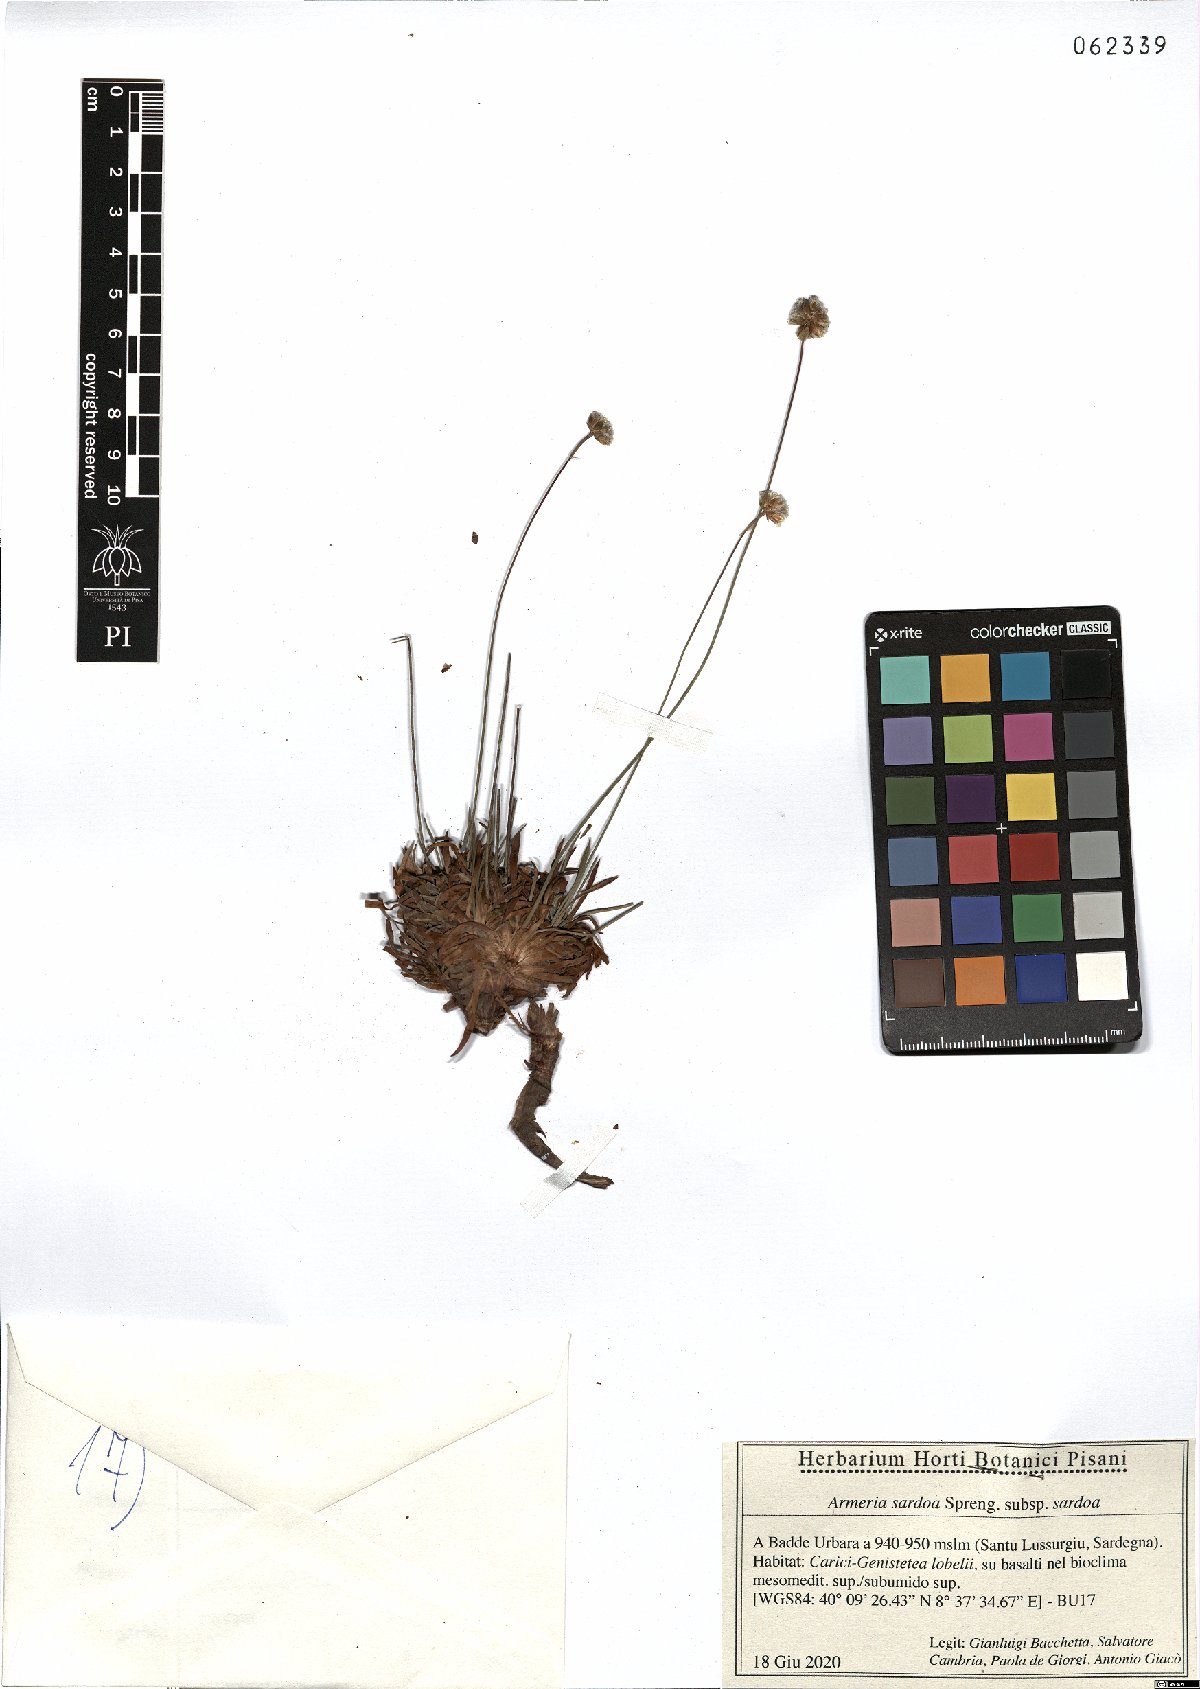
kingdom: Plantae
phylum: Tracheophyta
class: Magnoliopsida
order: Caryophyllales
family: Plumbaginaceae
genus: Armeria
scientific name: Armeria sardoa
